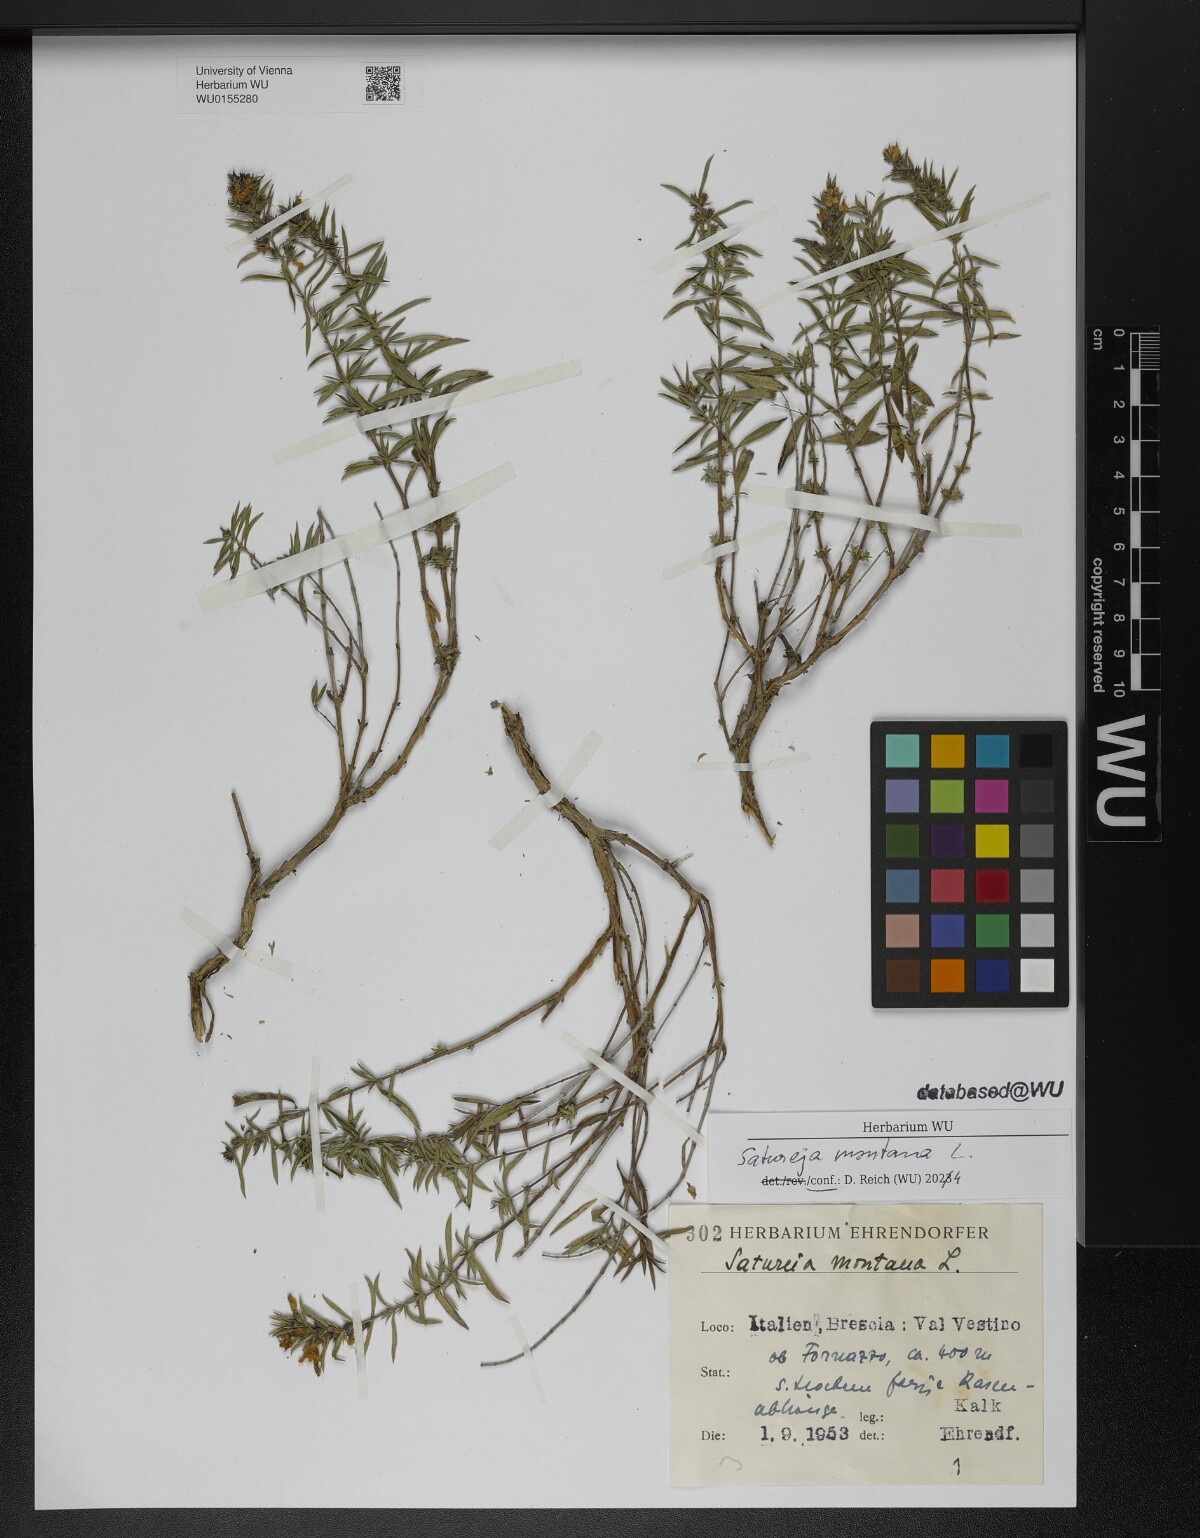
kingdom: Plantae
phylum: Tracheophyta
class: Magnoliopsida
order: Lamiales
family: Lamiaceae
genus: Satureja
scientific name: Satureja montana
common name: Winter savory
